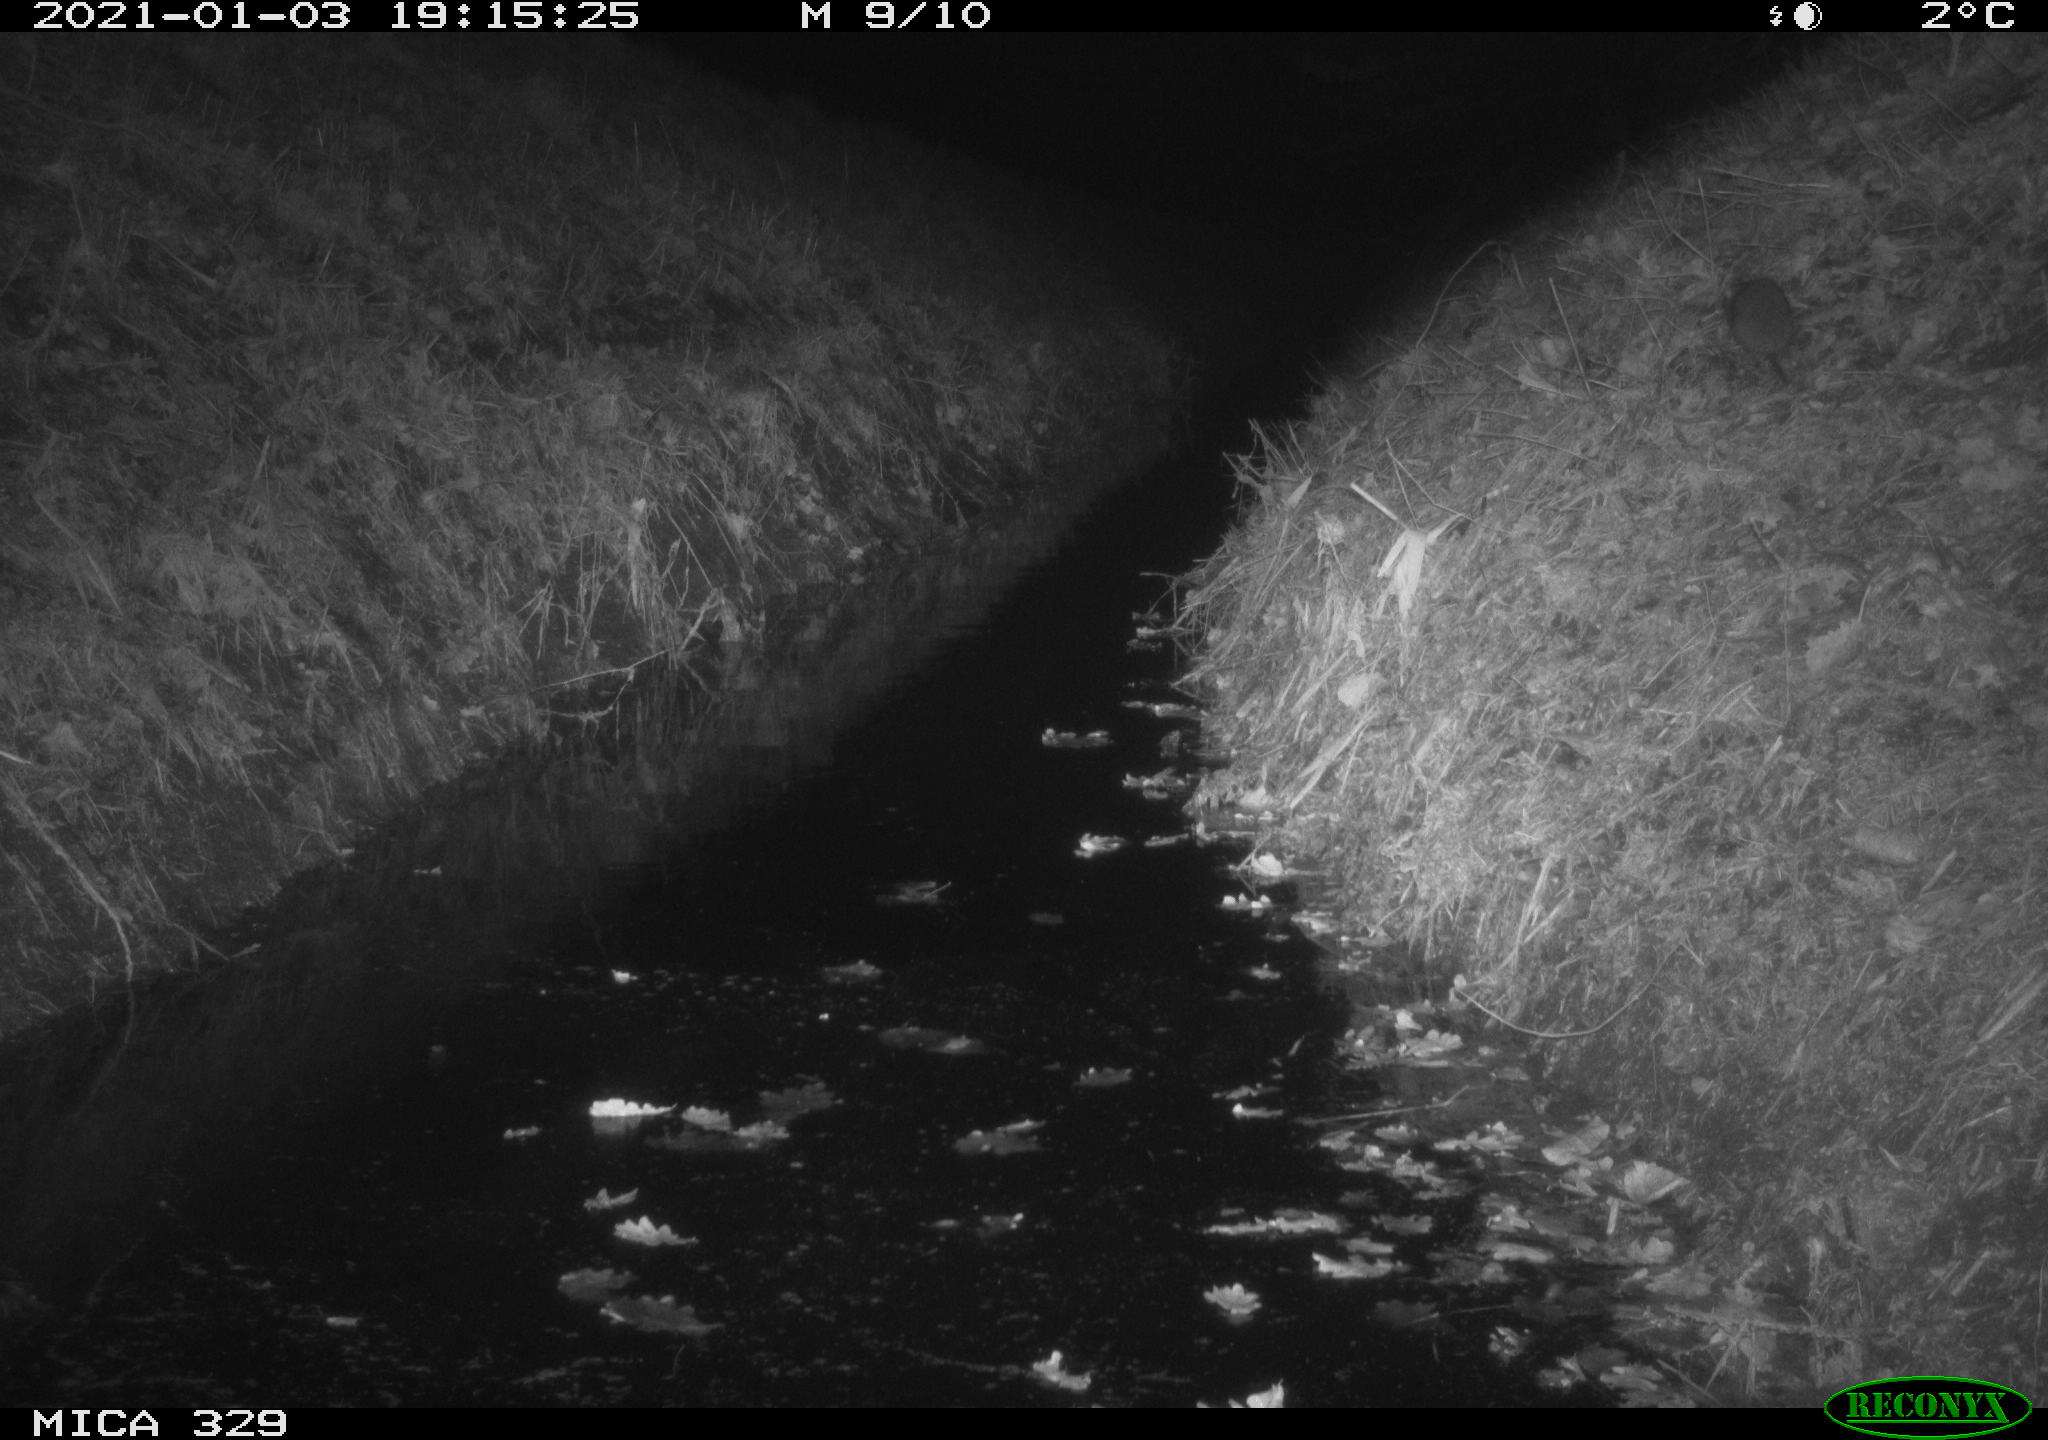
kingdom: Animalia
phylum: Chordata
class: Mammalia
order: Rodentia
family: Muridae
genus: Rattus
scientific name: Rattus norvegicus
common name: Brown rat
